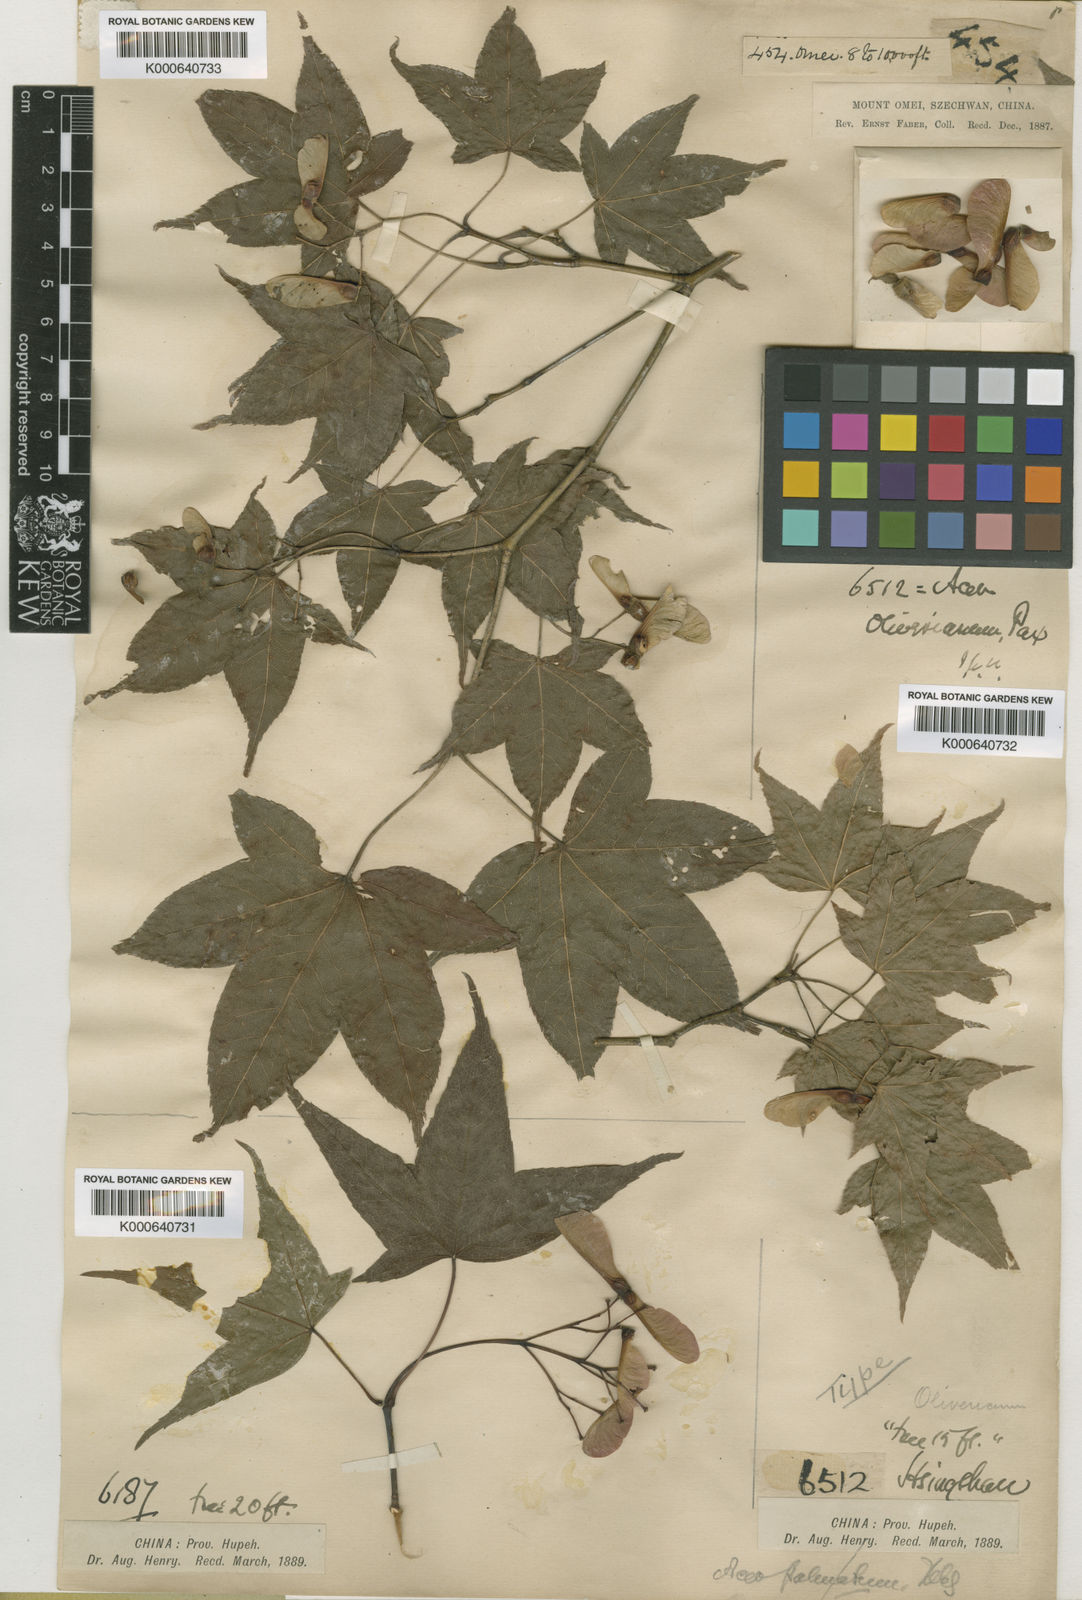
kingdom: Plantae
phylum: Tracheophyta
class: Magnoliopsida
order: Sapindales
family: Sapindaceae
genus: Acer
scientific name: Acer oliverianum
